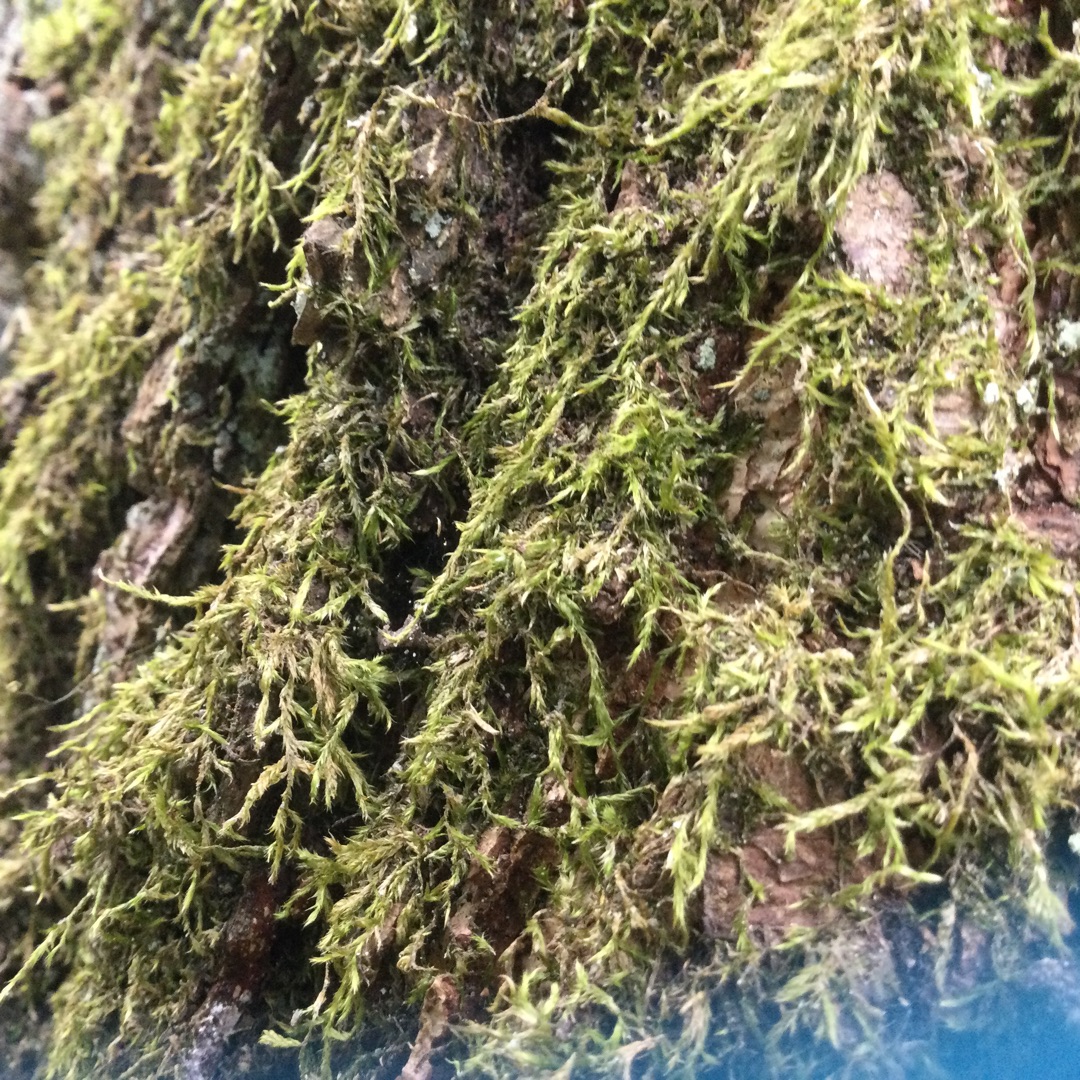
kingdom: Plantae
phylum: Bryophyta
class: Bryopsida
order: Hypnales
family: Hypnaceae
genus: Hypnum
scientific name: Hypnum
